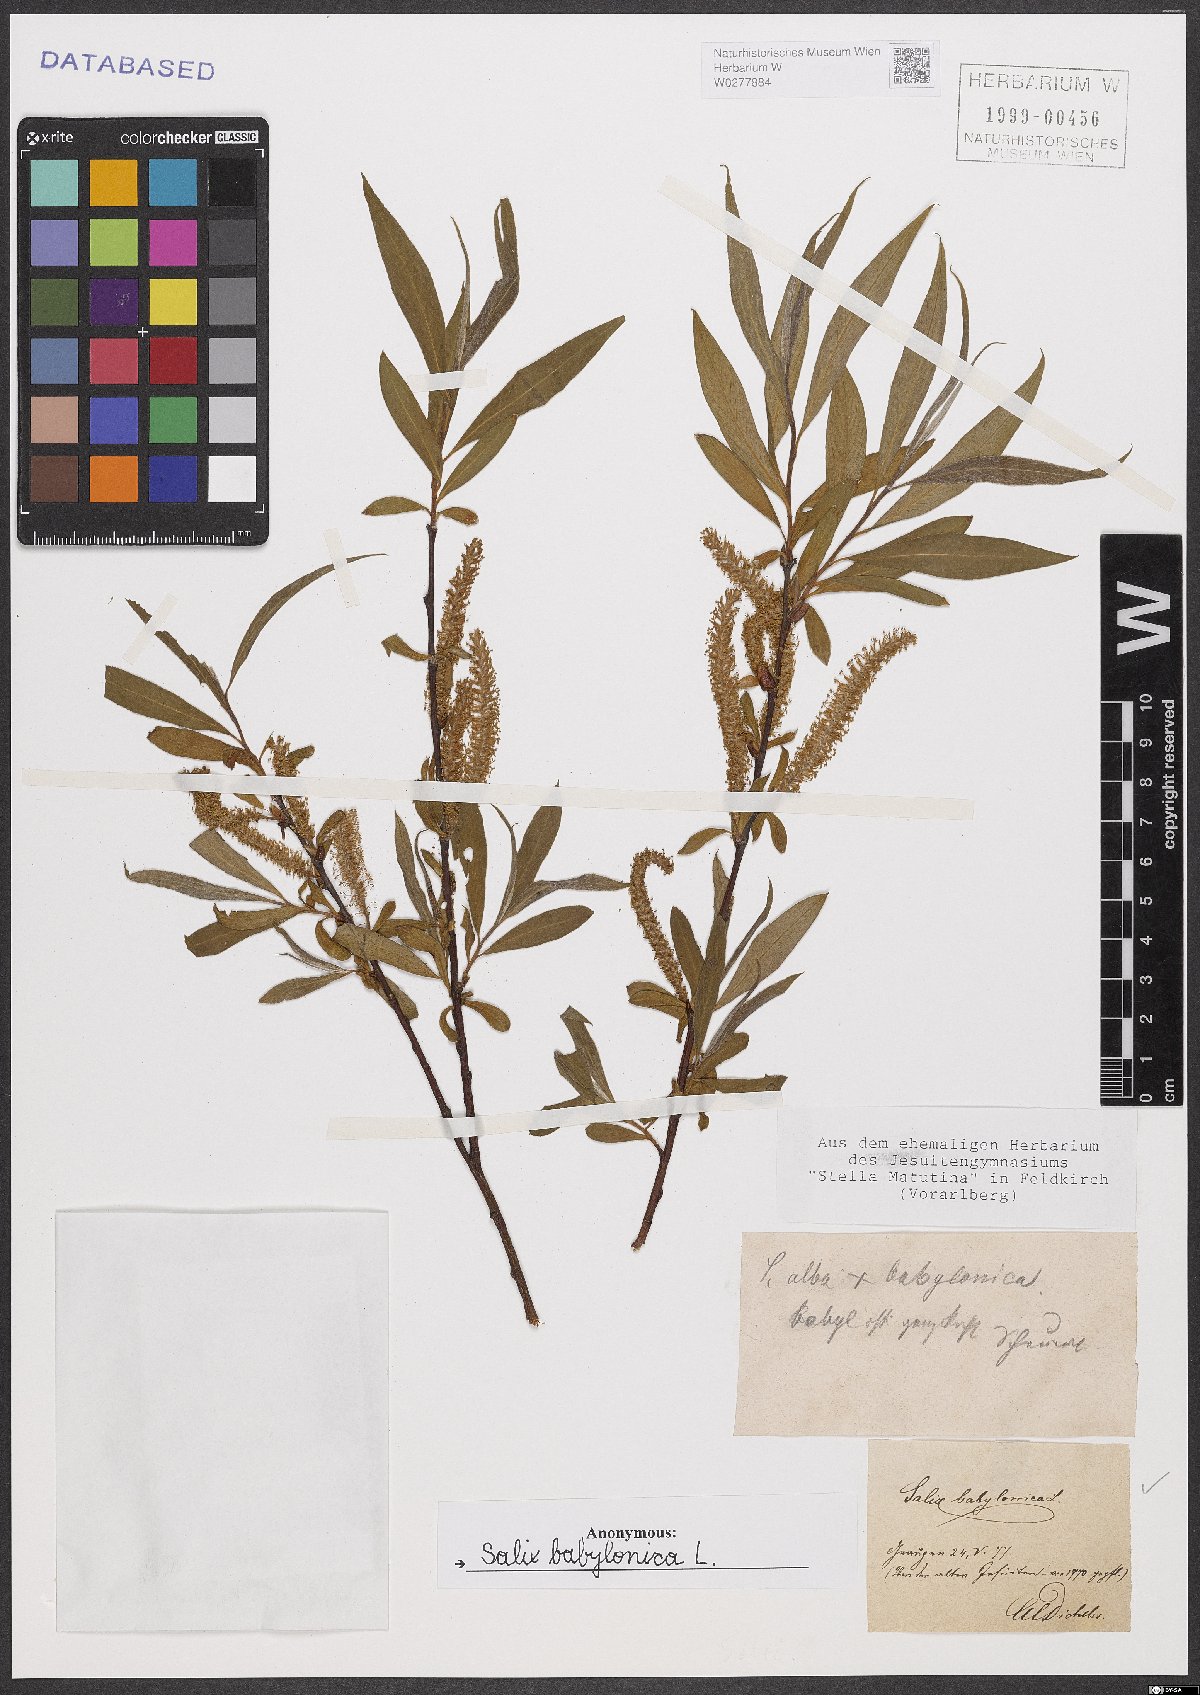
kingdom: Plantae
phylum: Tracheophyta
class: Magnoliopsida
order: Malpighiales
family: Salicaceae
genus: Salix
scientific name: Salix babylonica
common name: Weeping willow
